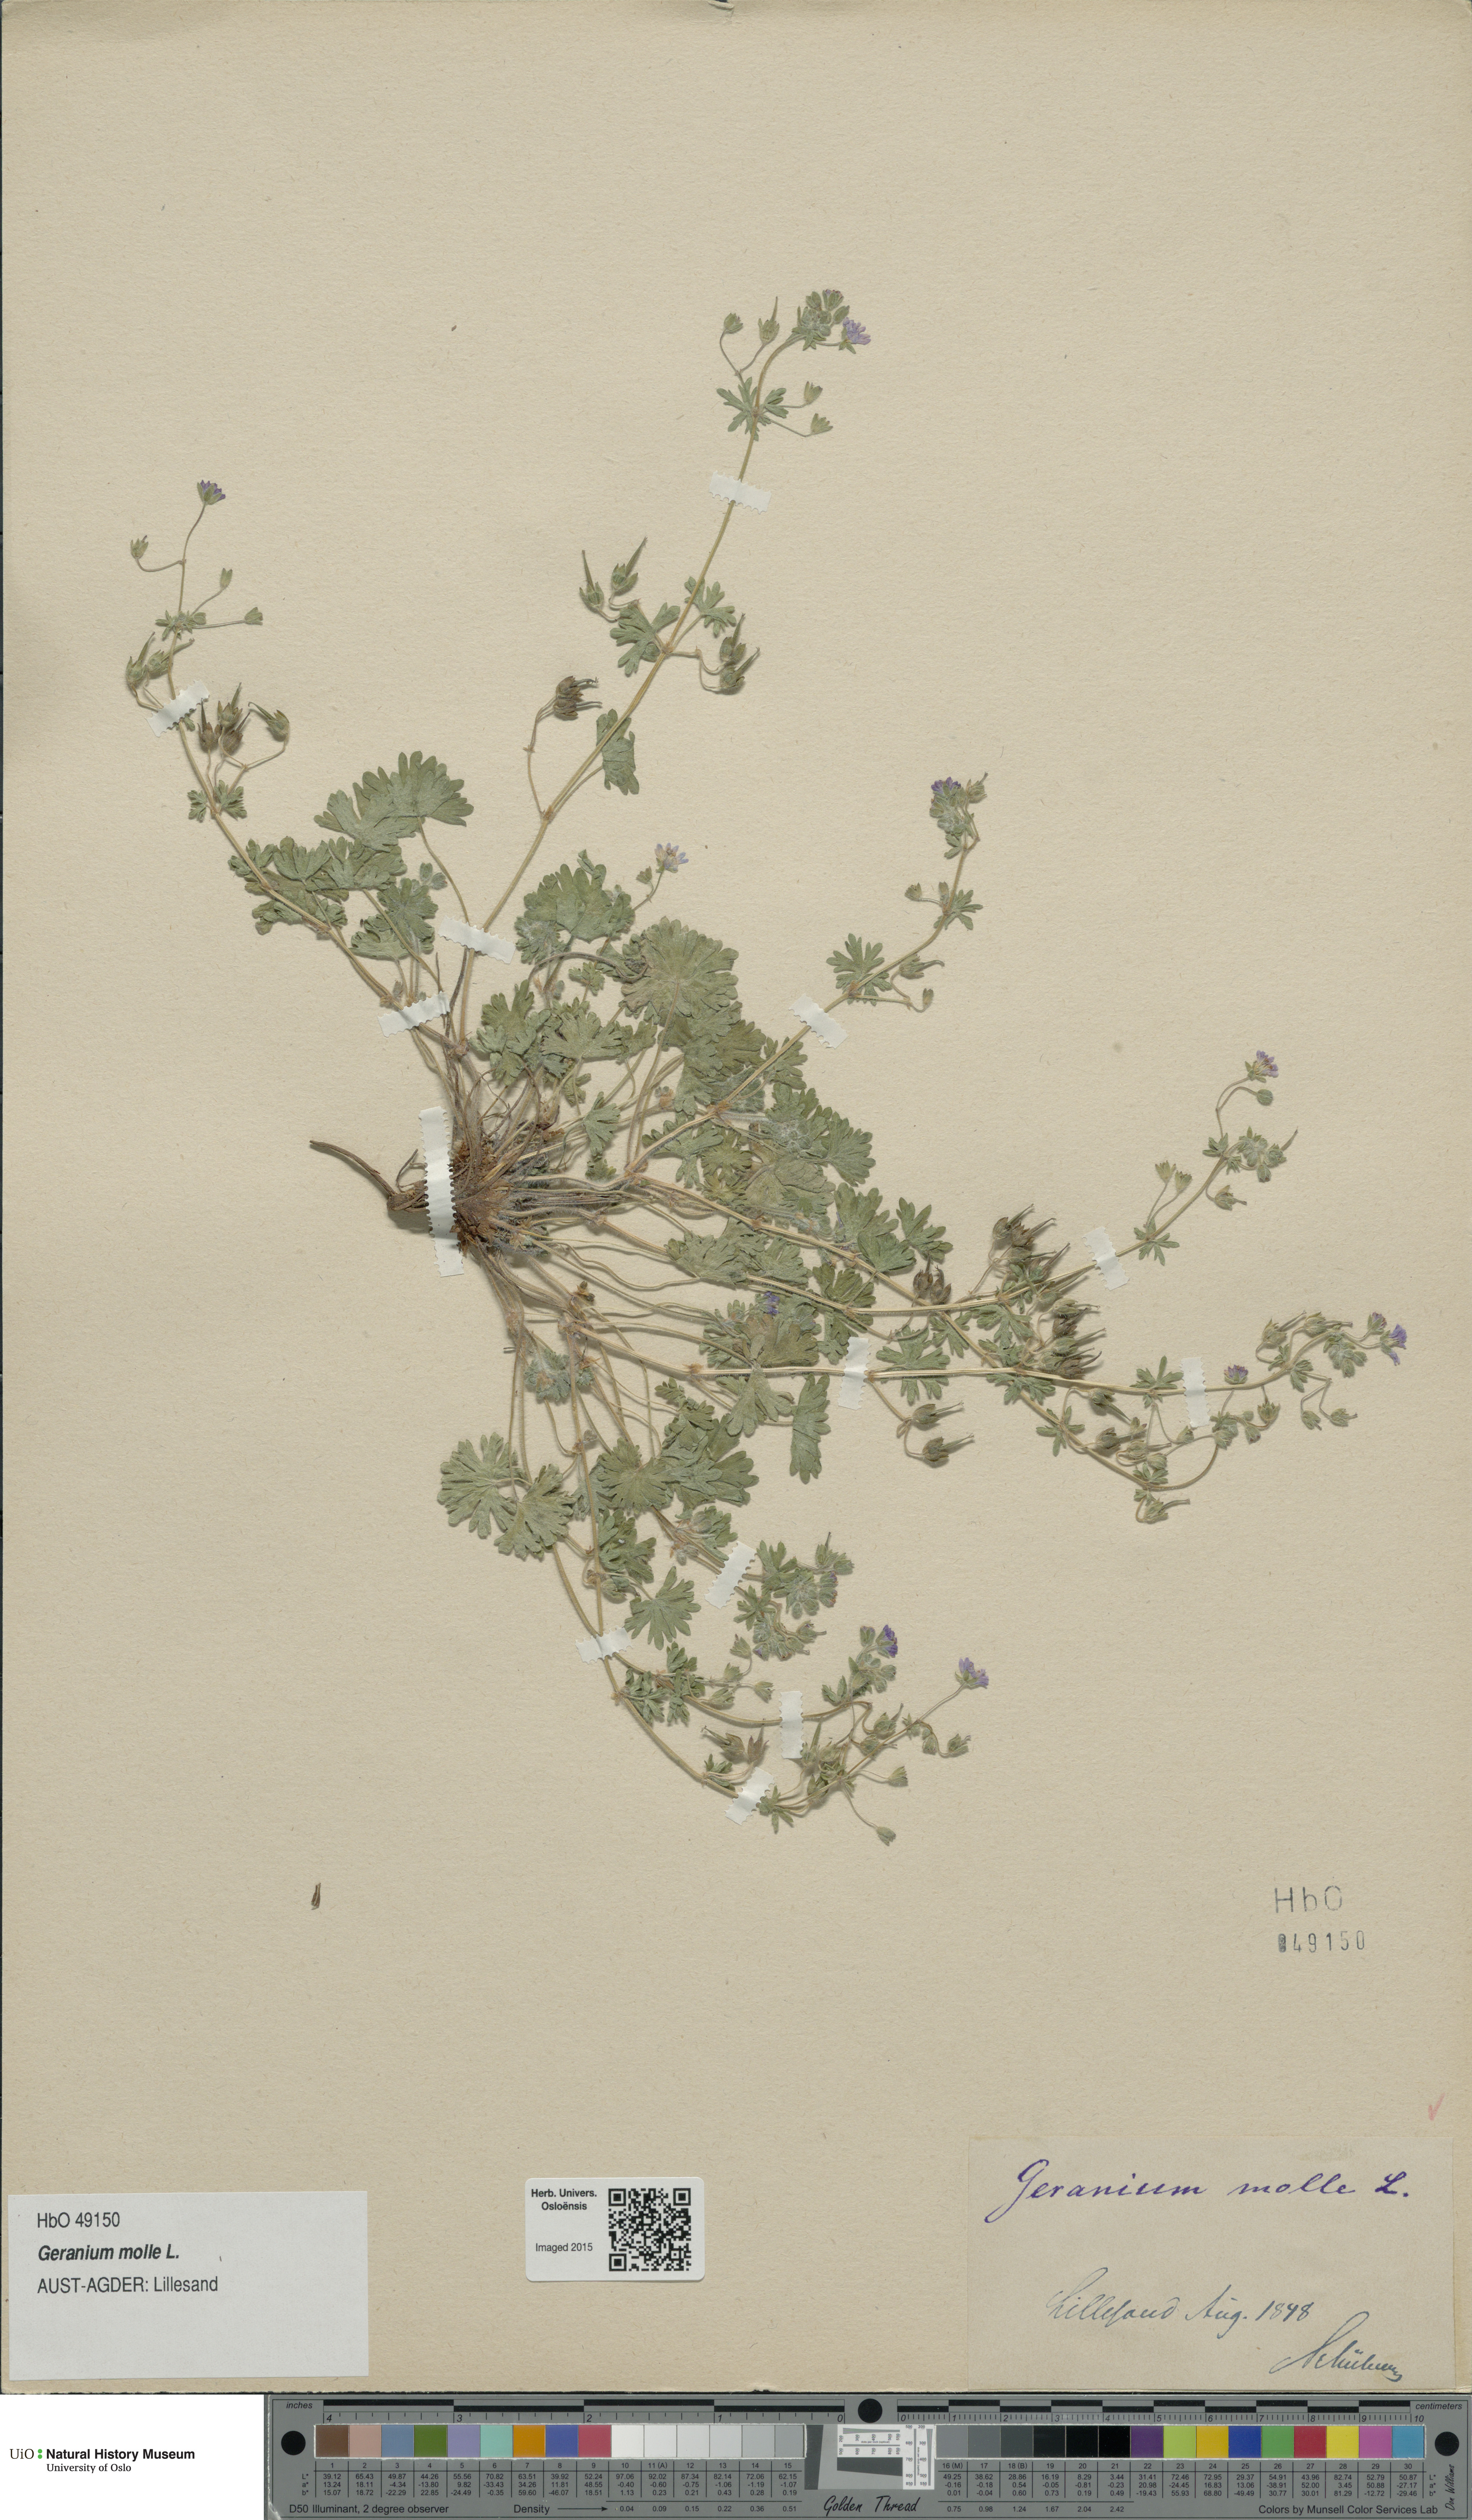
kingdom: Plantae
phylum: Tracheophyta
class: Magnoliopsida
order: Geraniales
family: Geraniaceae
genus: Geranium
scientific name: Geranium molle
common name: Dove's-foot crane's-bill
